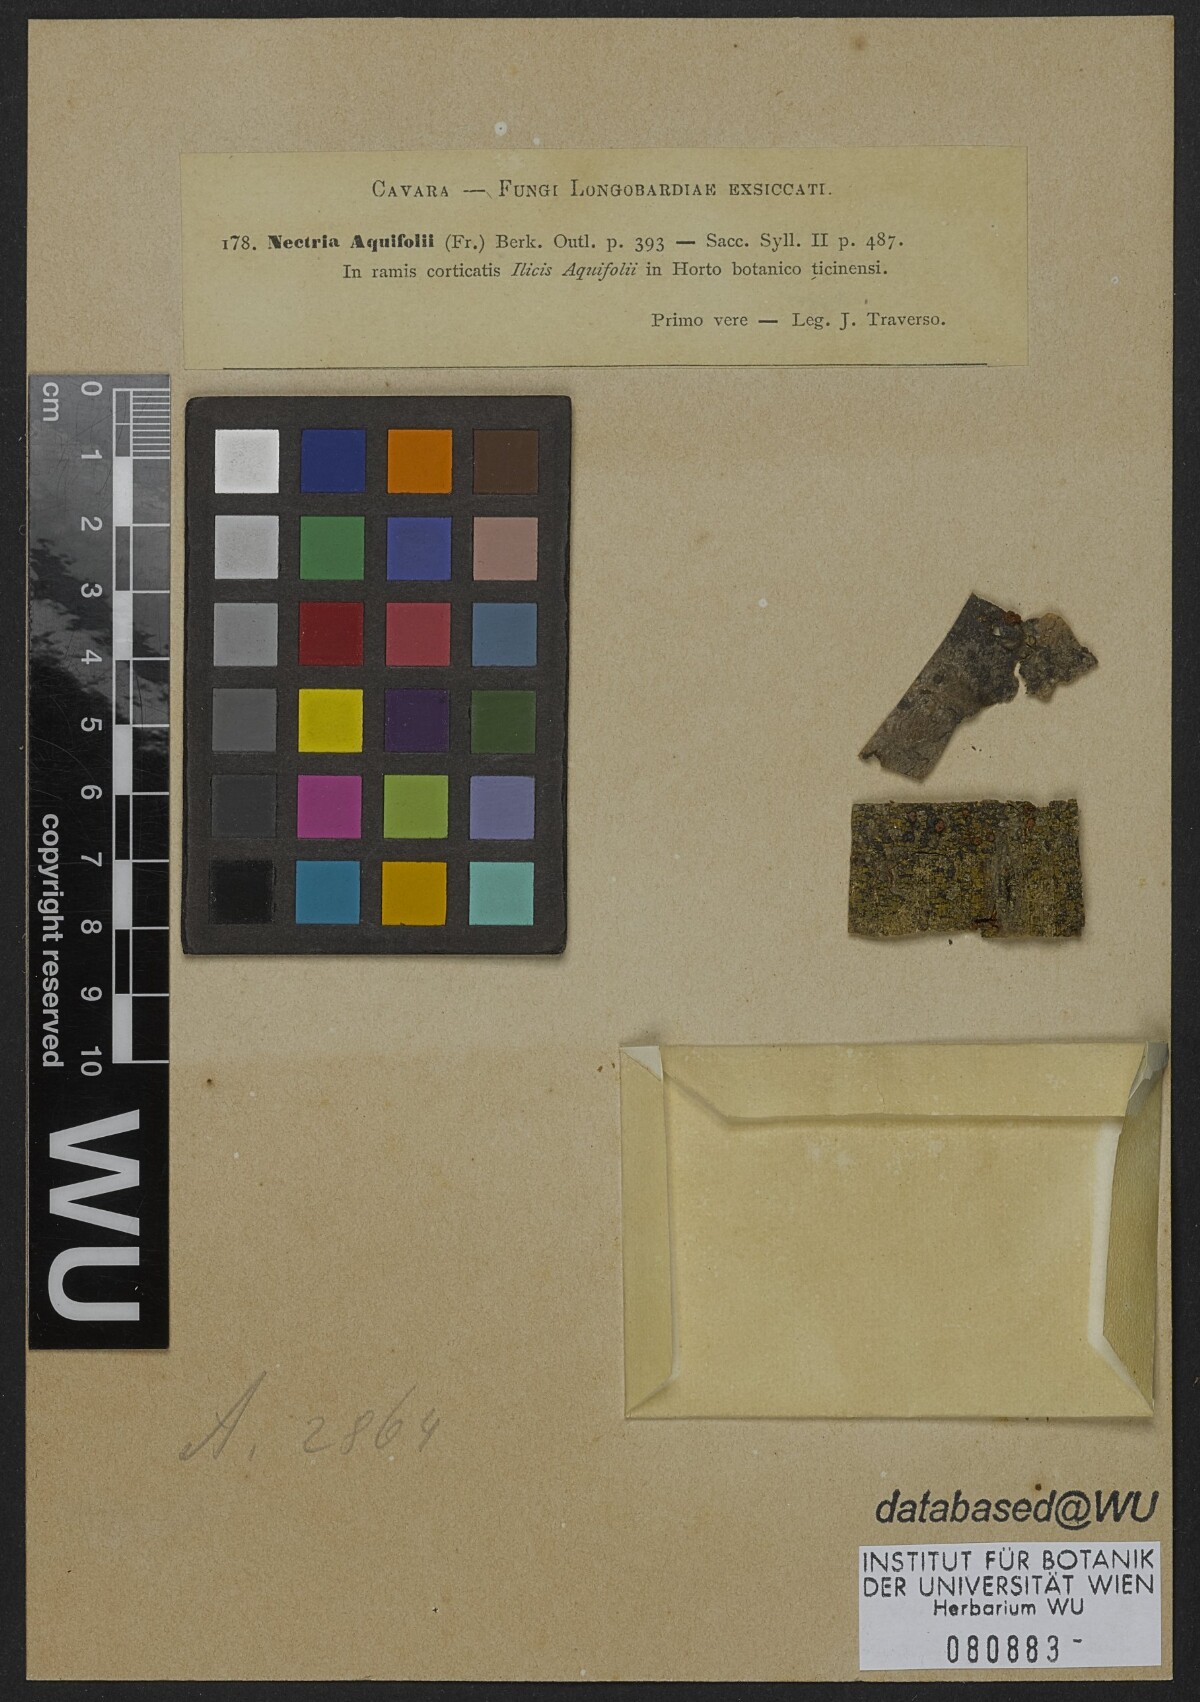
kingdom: Fungi
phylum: Ascomycota
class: Sordariomycetes
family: Thyridiaceae
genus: Thyronectria
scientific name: Thyronectria aquifolii
